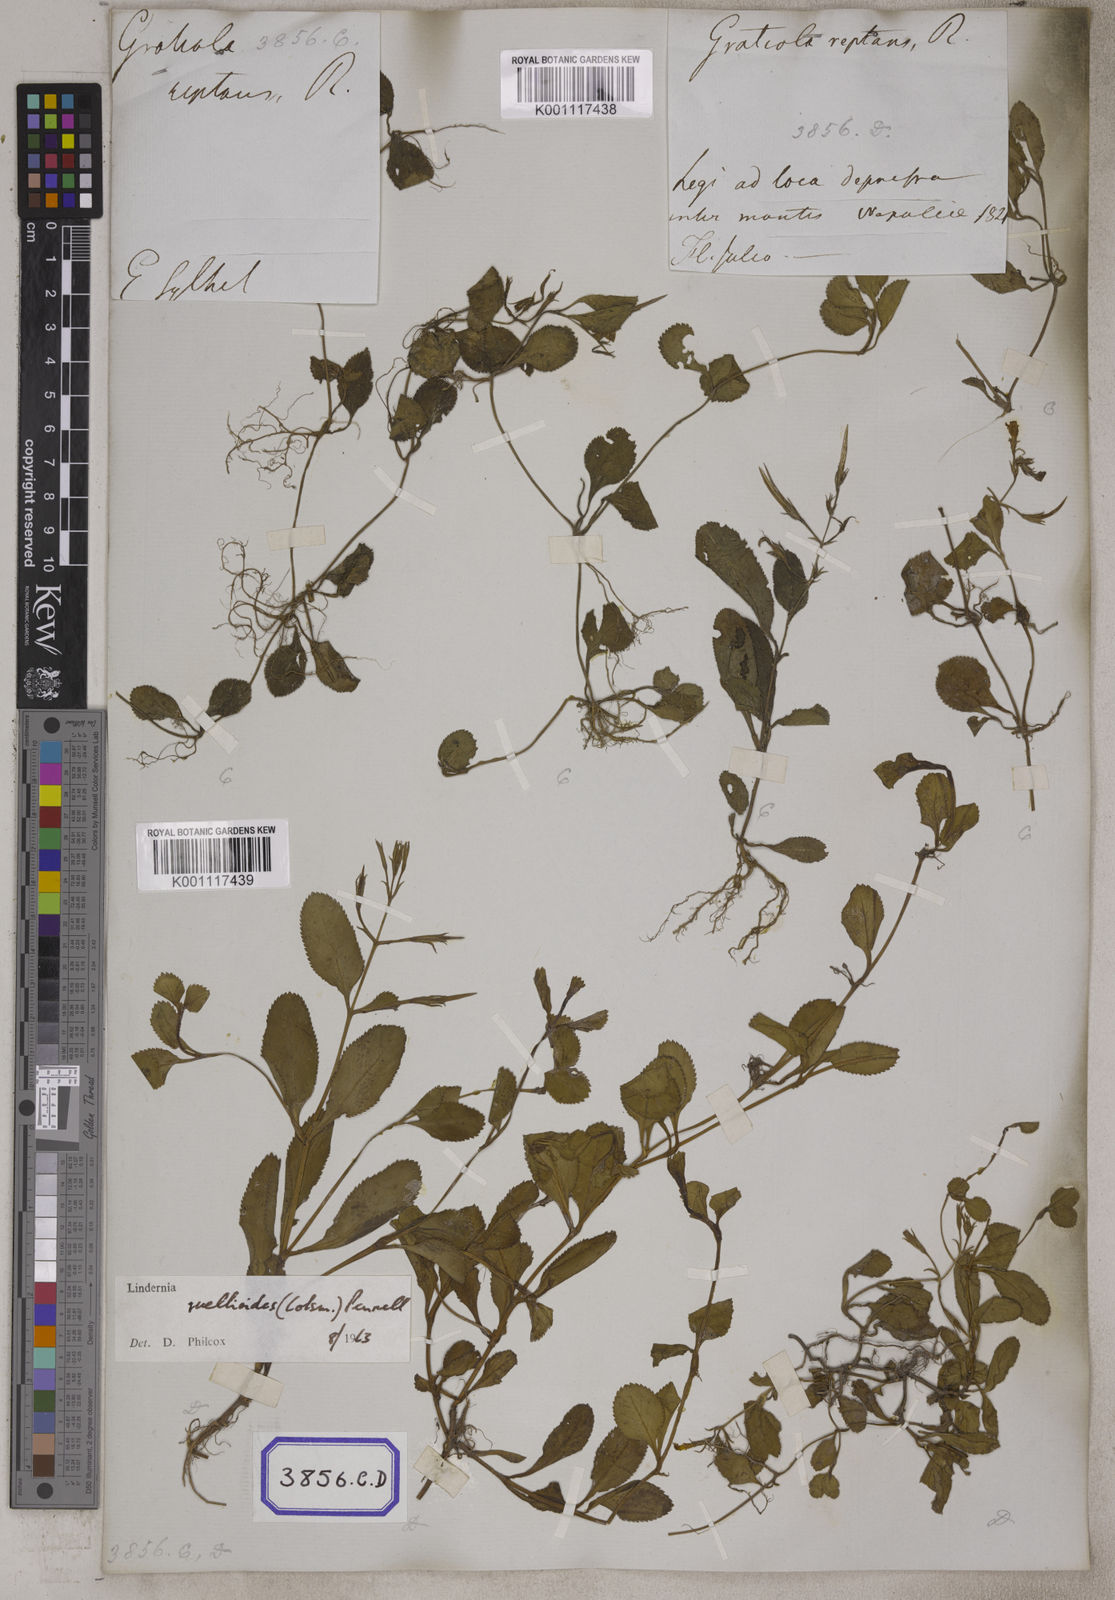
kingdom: Plantae
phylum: Tracheophyta
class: Magnoliopsida
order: Lamiales
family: Linderniaceae
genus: Bonnaya
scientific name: Bonnaya ruellioides
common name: Duckbill pimpernel
